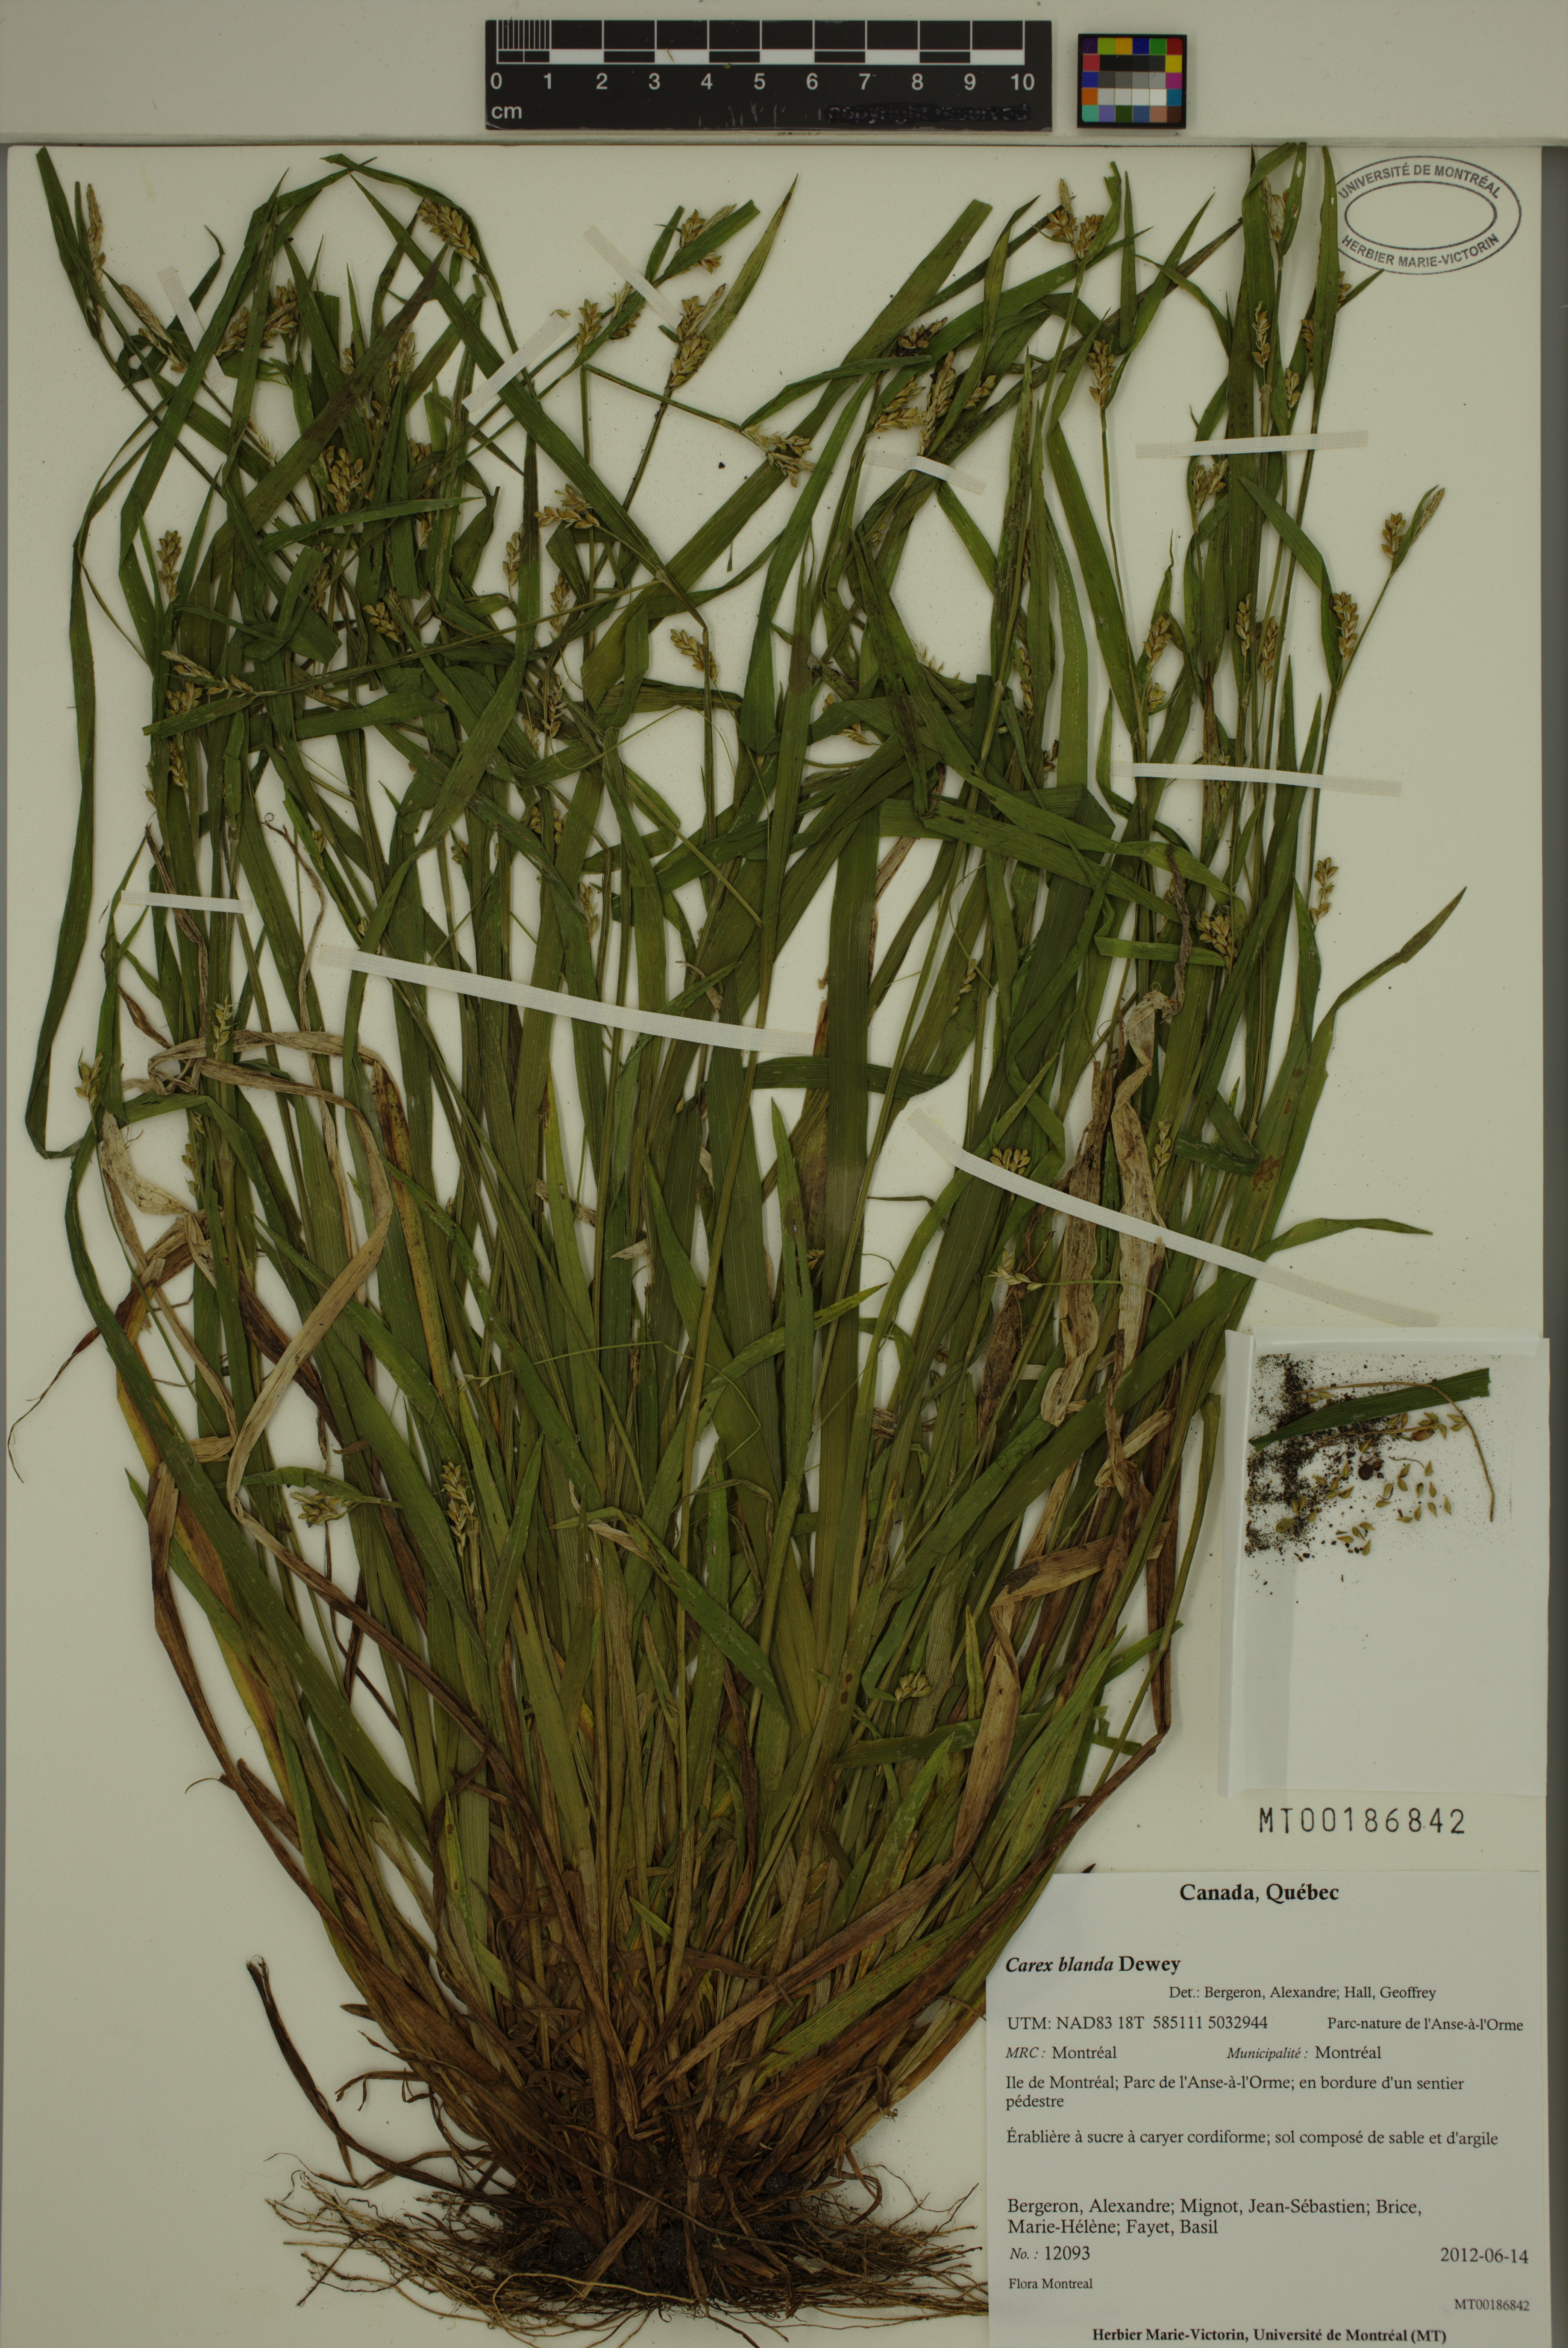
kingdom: Plantae
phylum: Tracheophyta
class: Liliopsida
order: Poales
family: Cyperaceae
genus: Carex
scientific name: Carex blanda
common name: Bland sedge
